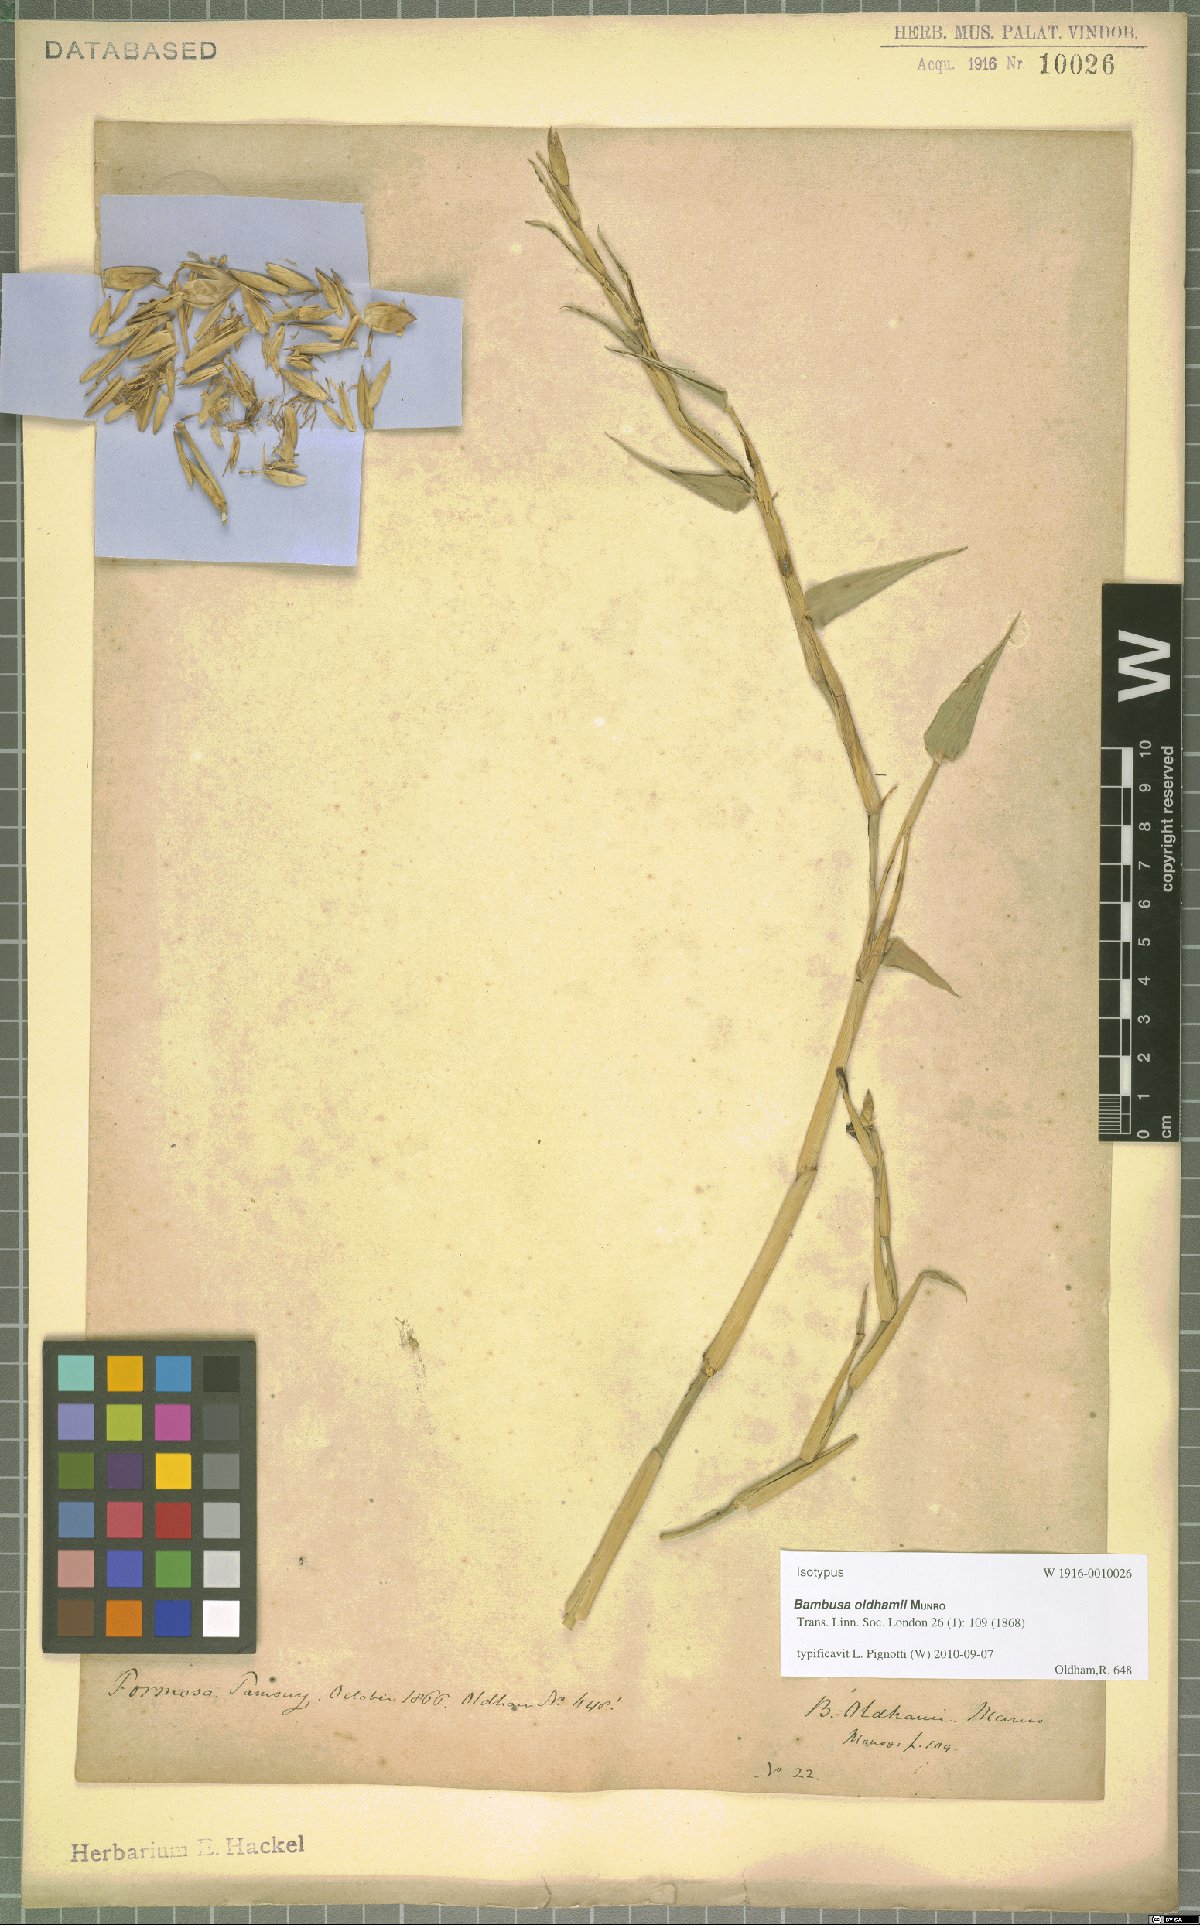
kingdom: Plantae
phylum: Tracheophyta
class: Liliopsida
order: Poales
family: Poaceae
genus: Bambusa
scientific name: Bambusa oldhamii
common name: Giant timber bamboo
